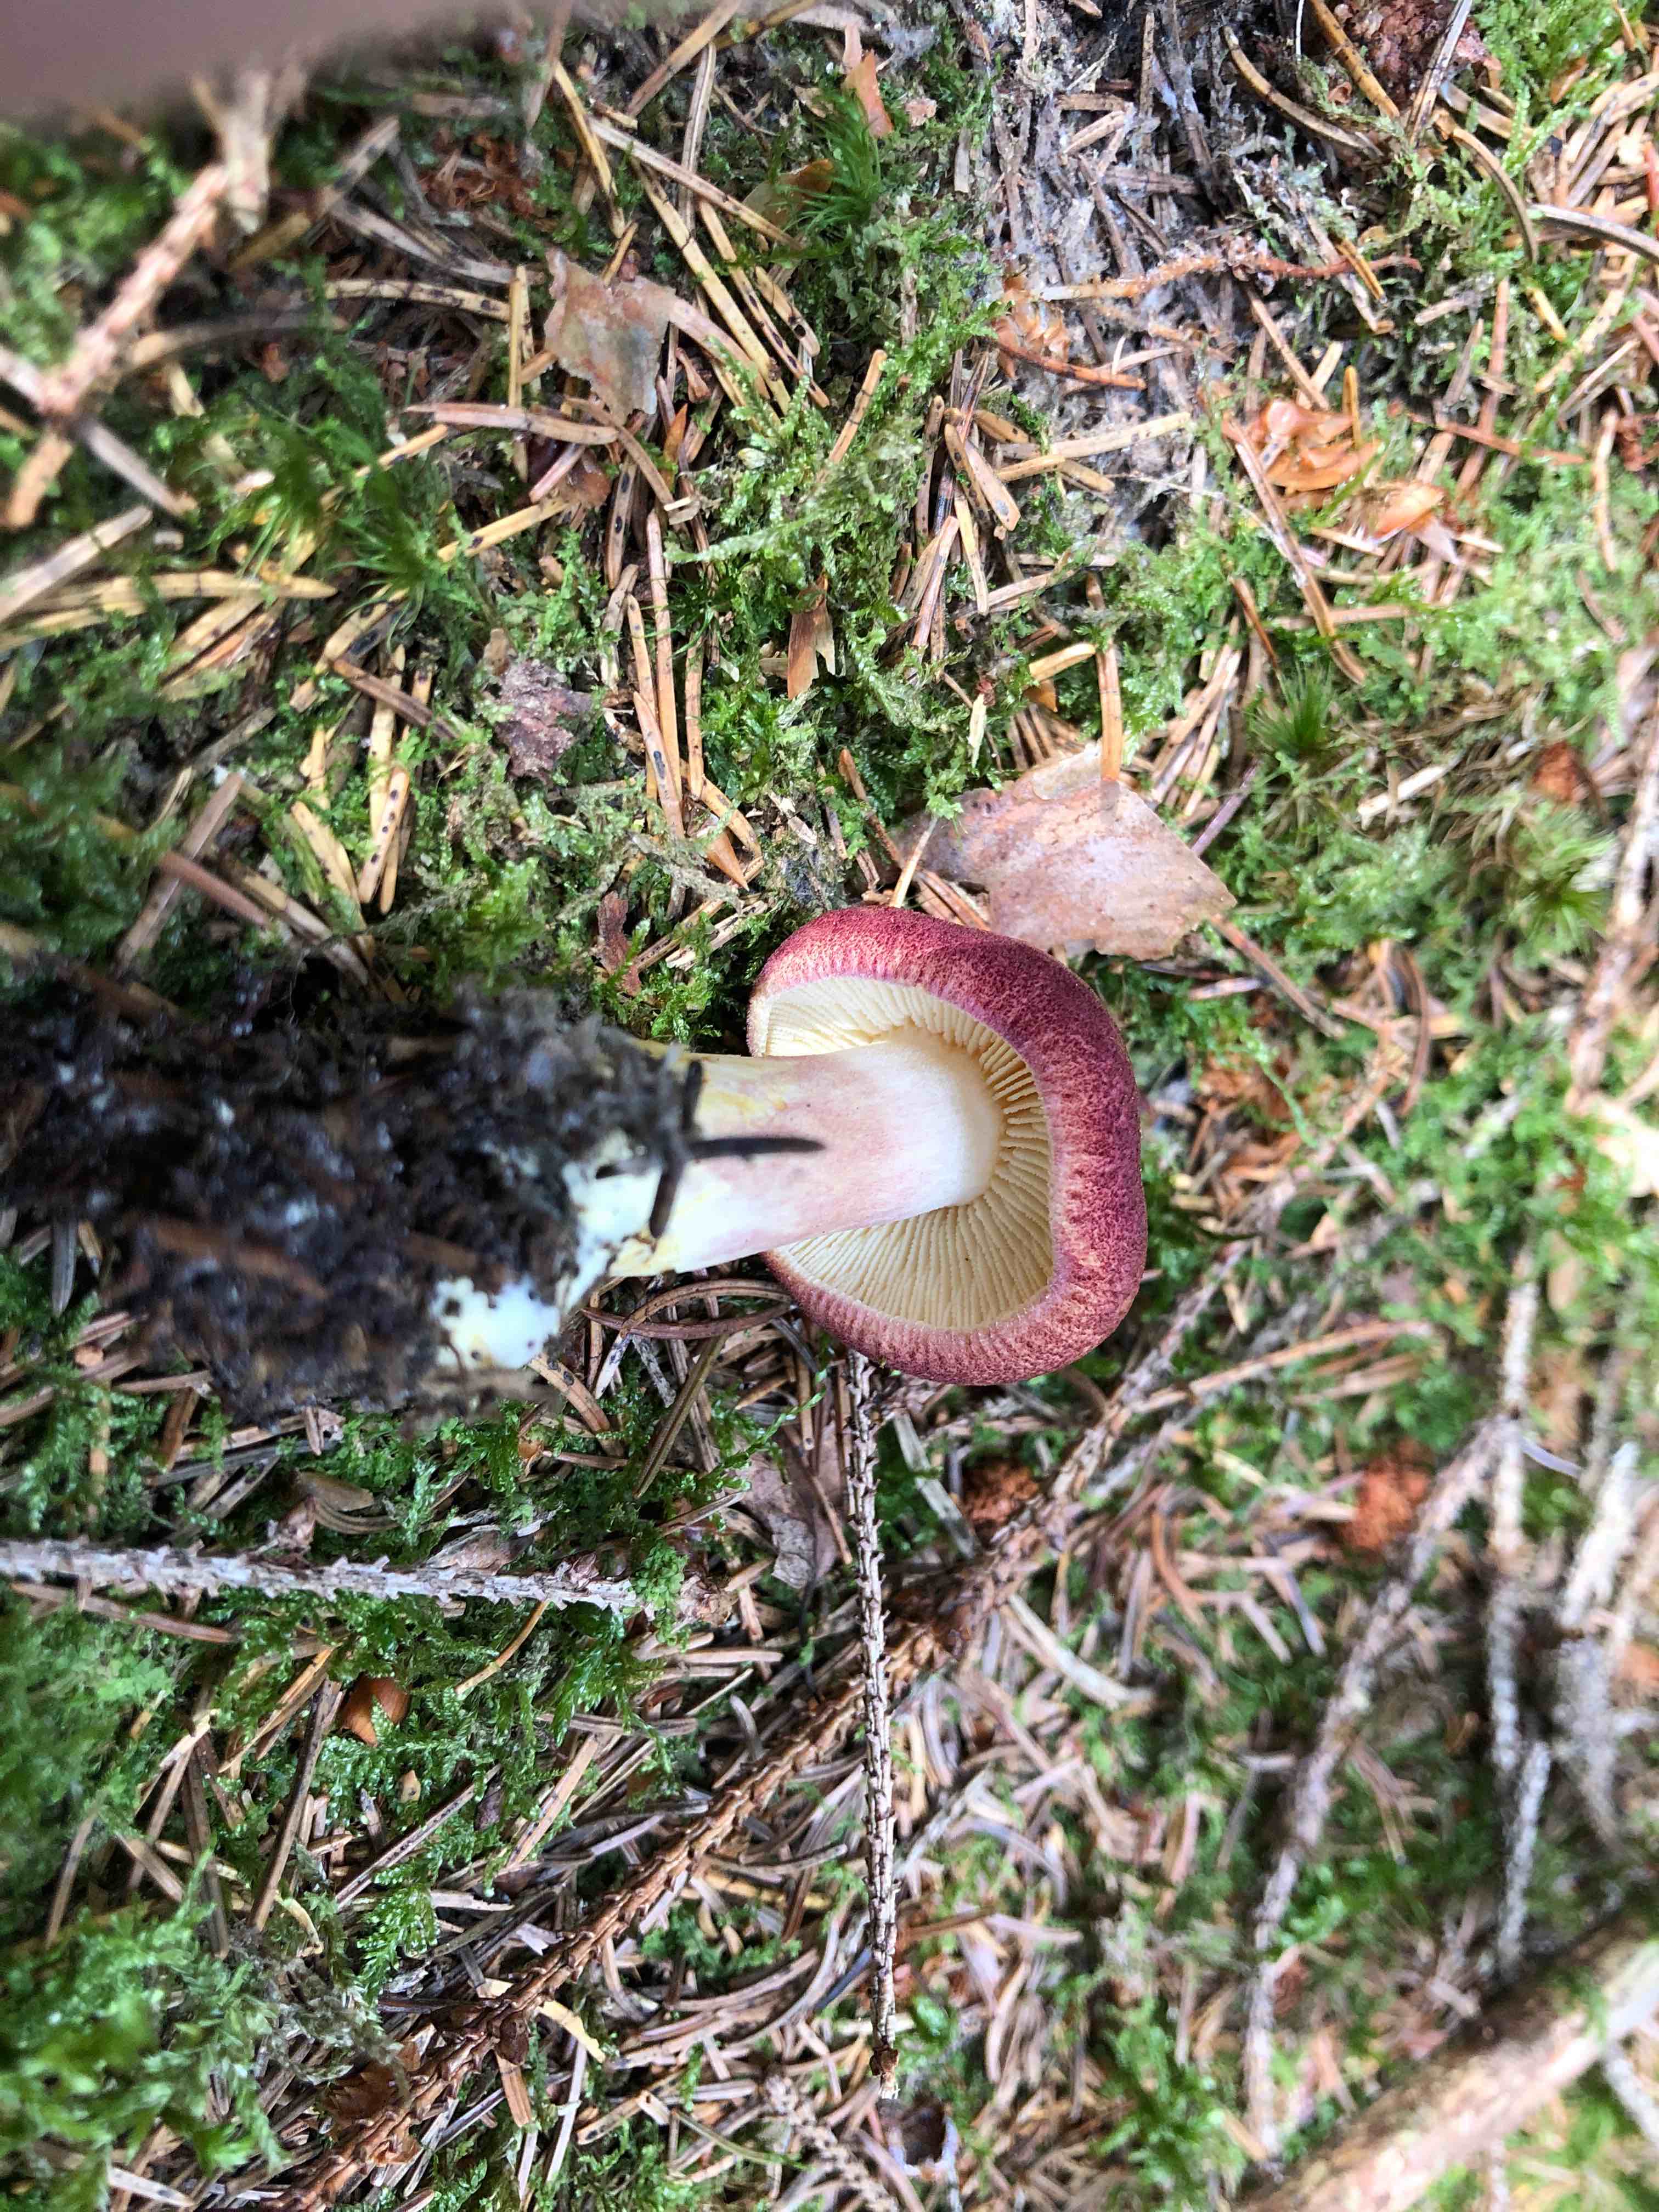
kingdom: Fungi
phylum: Basidiomycota
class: Agaricomycetes
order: Agaricales
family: Tricholomataceae
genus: Tricholomopsis
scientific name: Tricholomopsis rutilans
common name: purpur-væbnerhat
